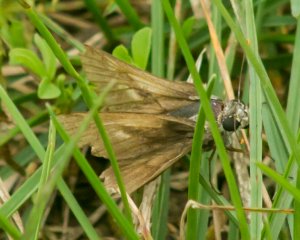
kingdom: Animalia
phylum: Arthropoda
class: Insecta
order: Lepidoptera
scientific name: Lepidoptera
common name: Butterflies
